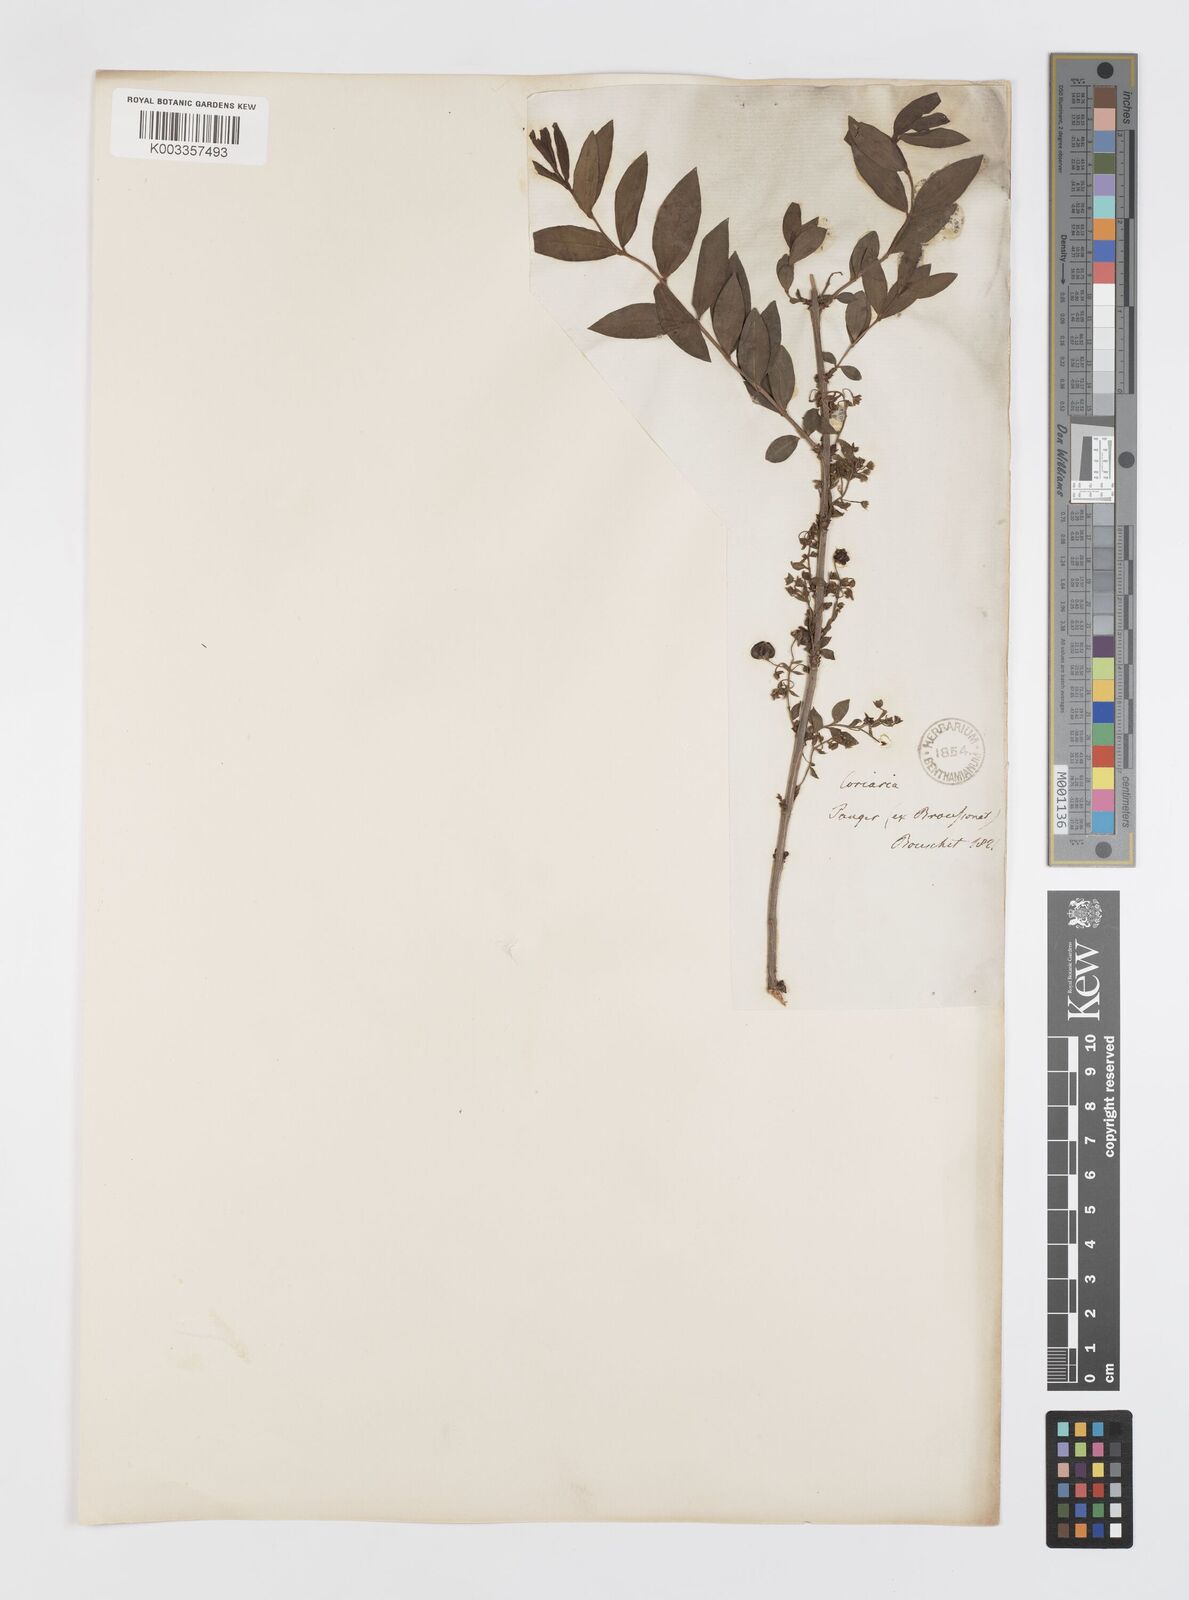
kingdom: Plantae
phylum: Tracheophyta
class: Magnoliopsida
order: Cucurbitales
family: Coriariaceae
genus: Coriaria
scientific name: Coriaria myrtifolia
